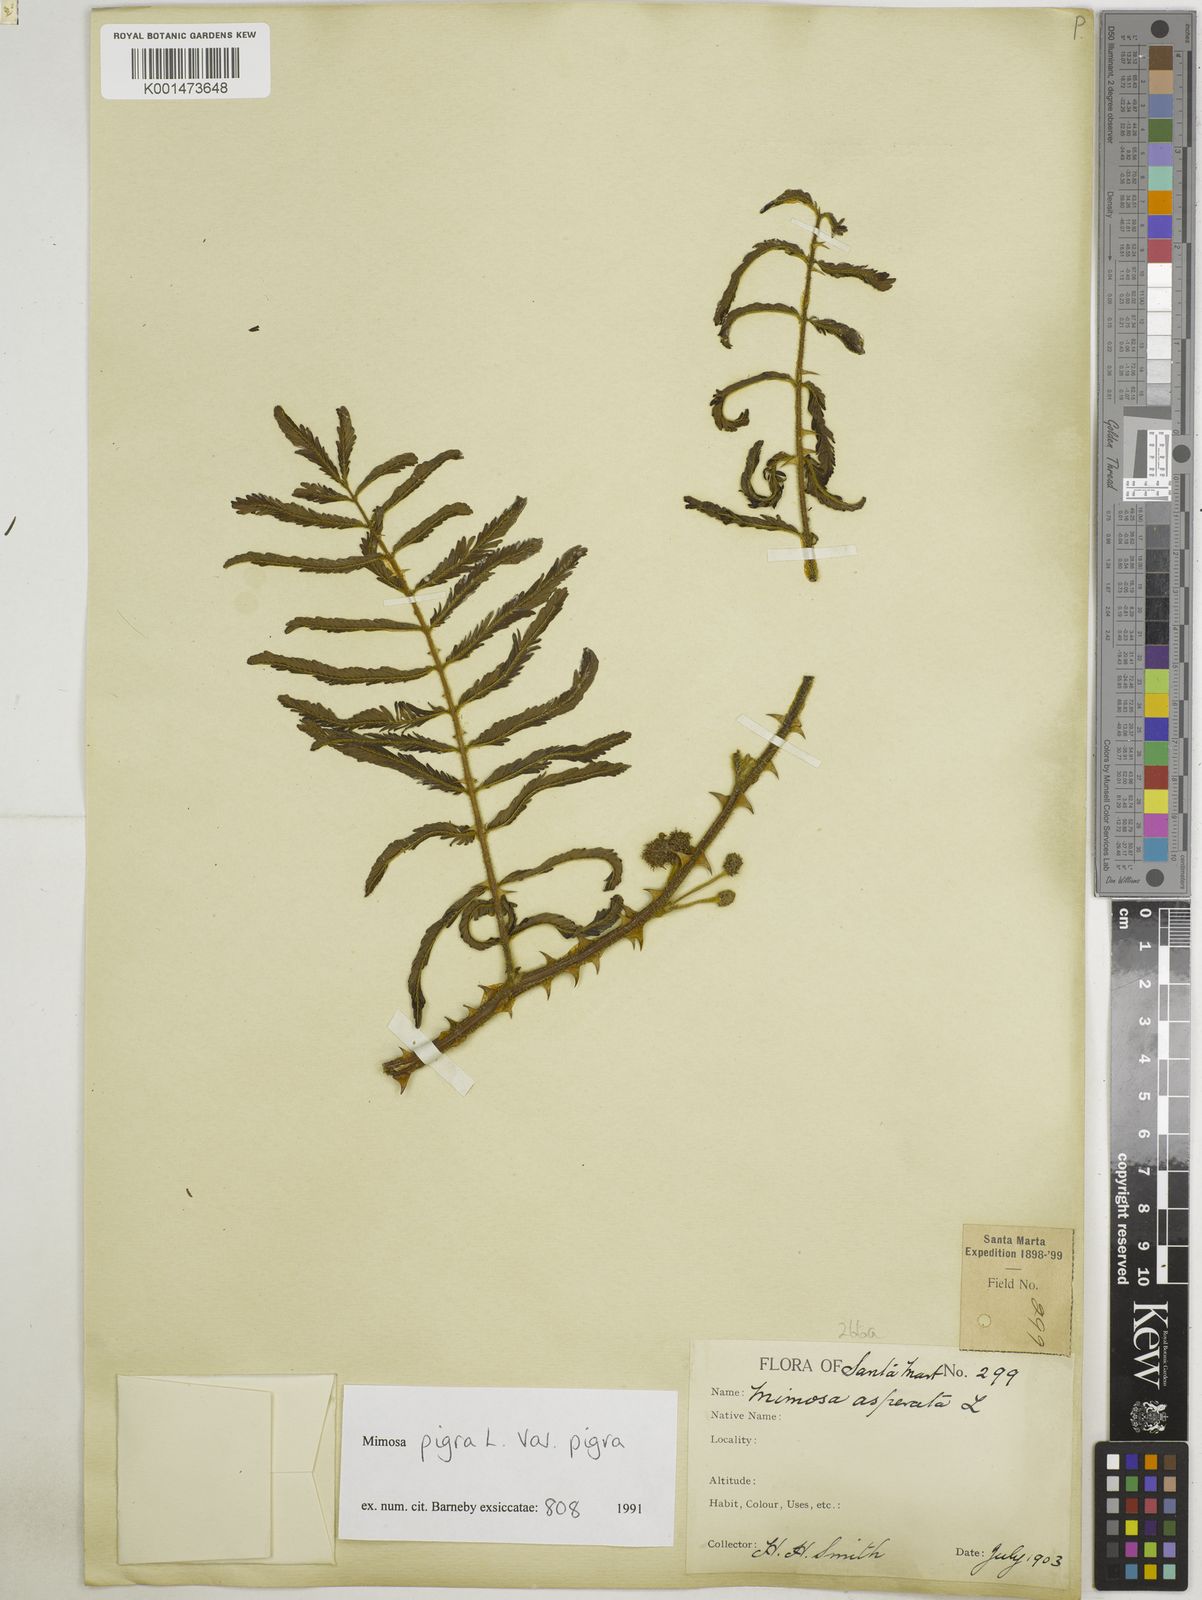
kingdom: Plantae
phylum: Tracheophyta
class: Magnoliopsida
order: Fabales
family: Fabaceae
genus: Mimosa
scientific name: Mimosa pigra
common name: Black mimosa
